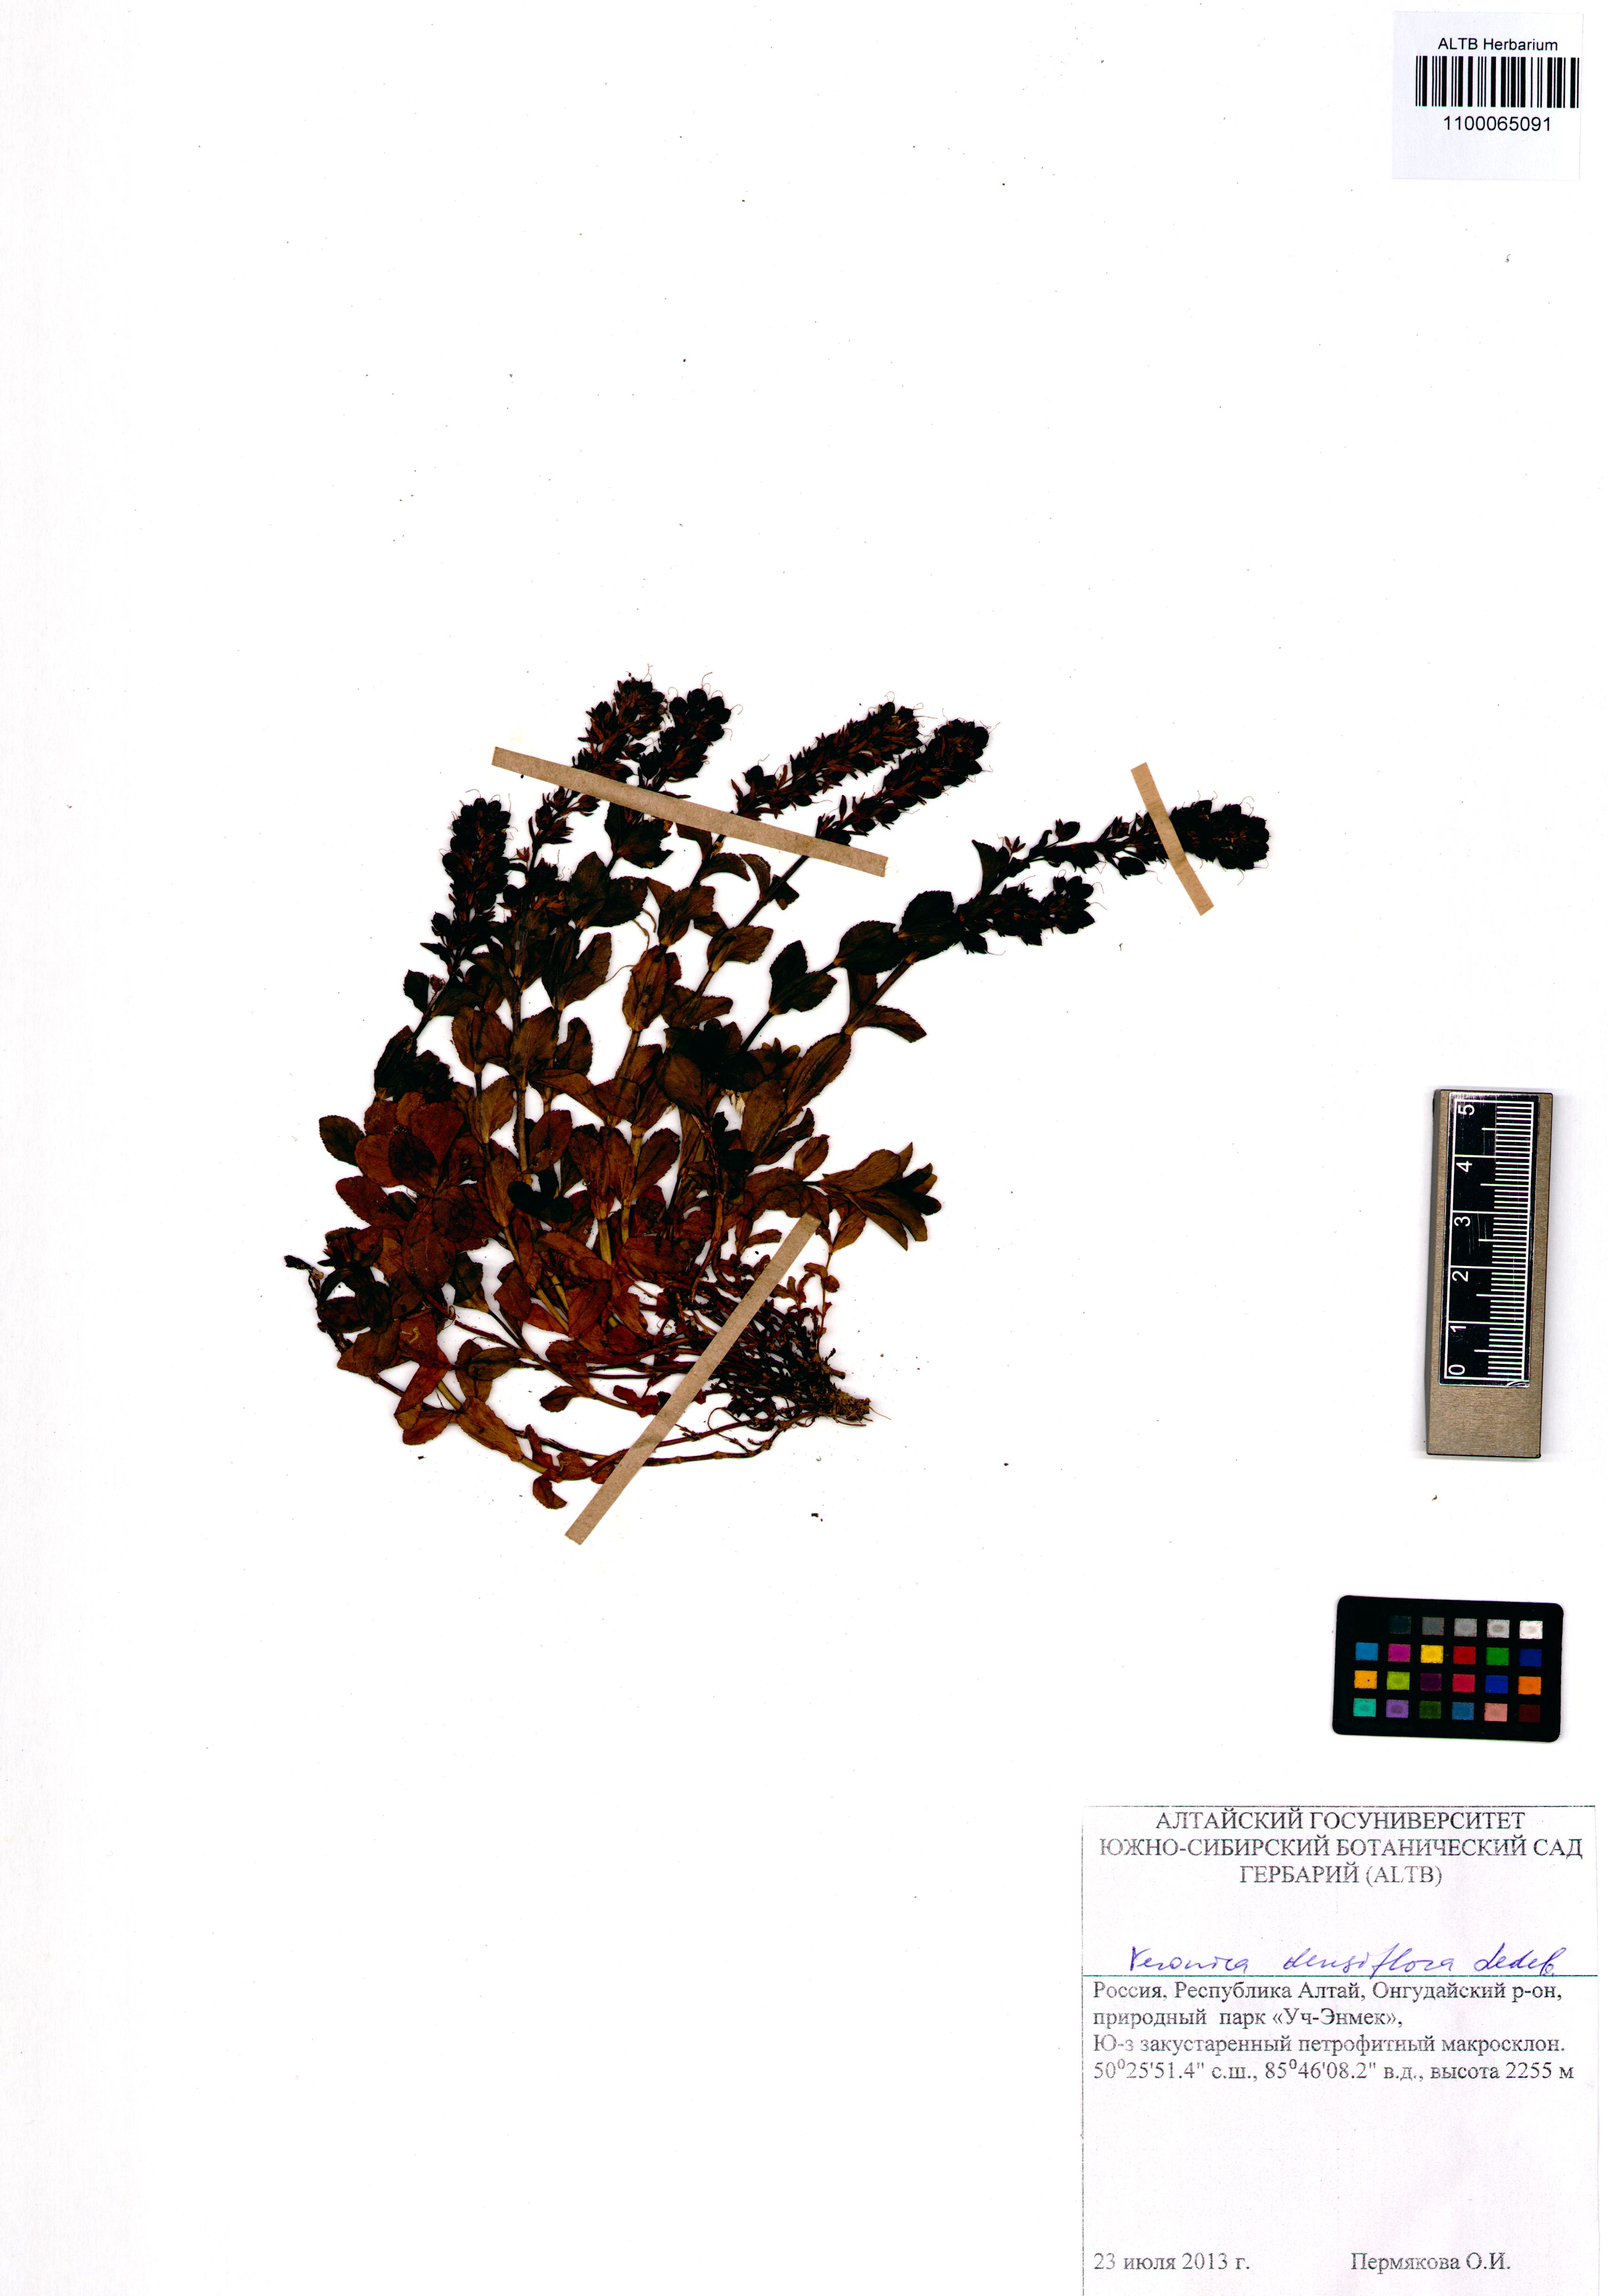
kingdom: Plantae
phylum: Tracheophyta
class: Magnoliopsida
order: Lamiales
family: Plantaginaceae
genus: Veronica
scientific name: Veronica densiflora
